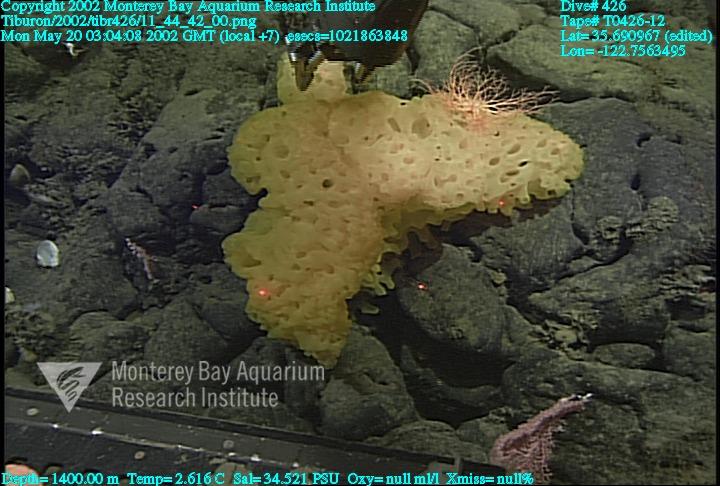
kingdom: Animalia
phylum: Porifera
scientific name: Porifera
